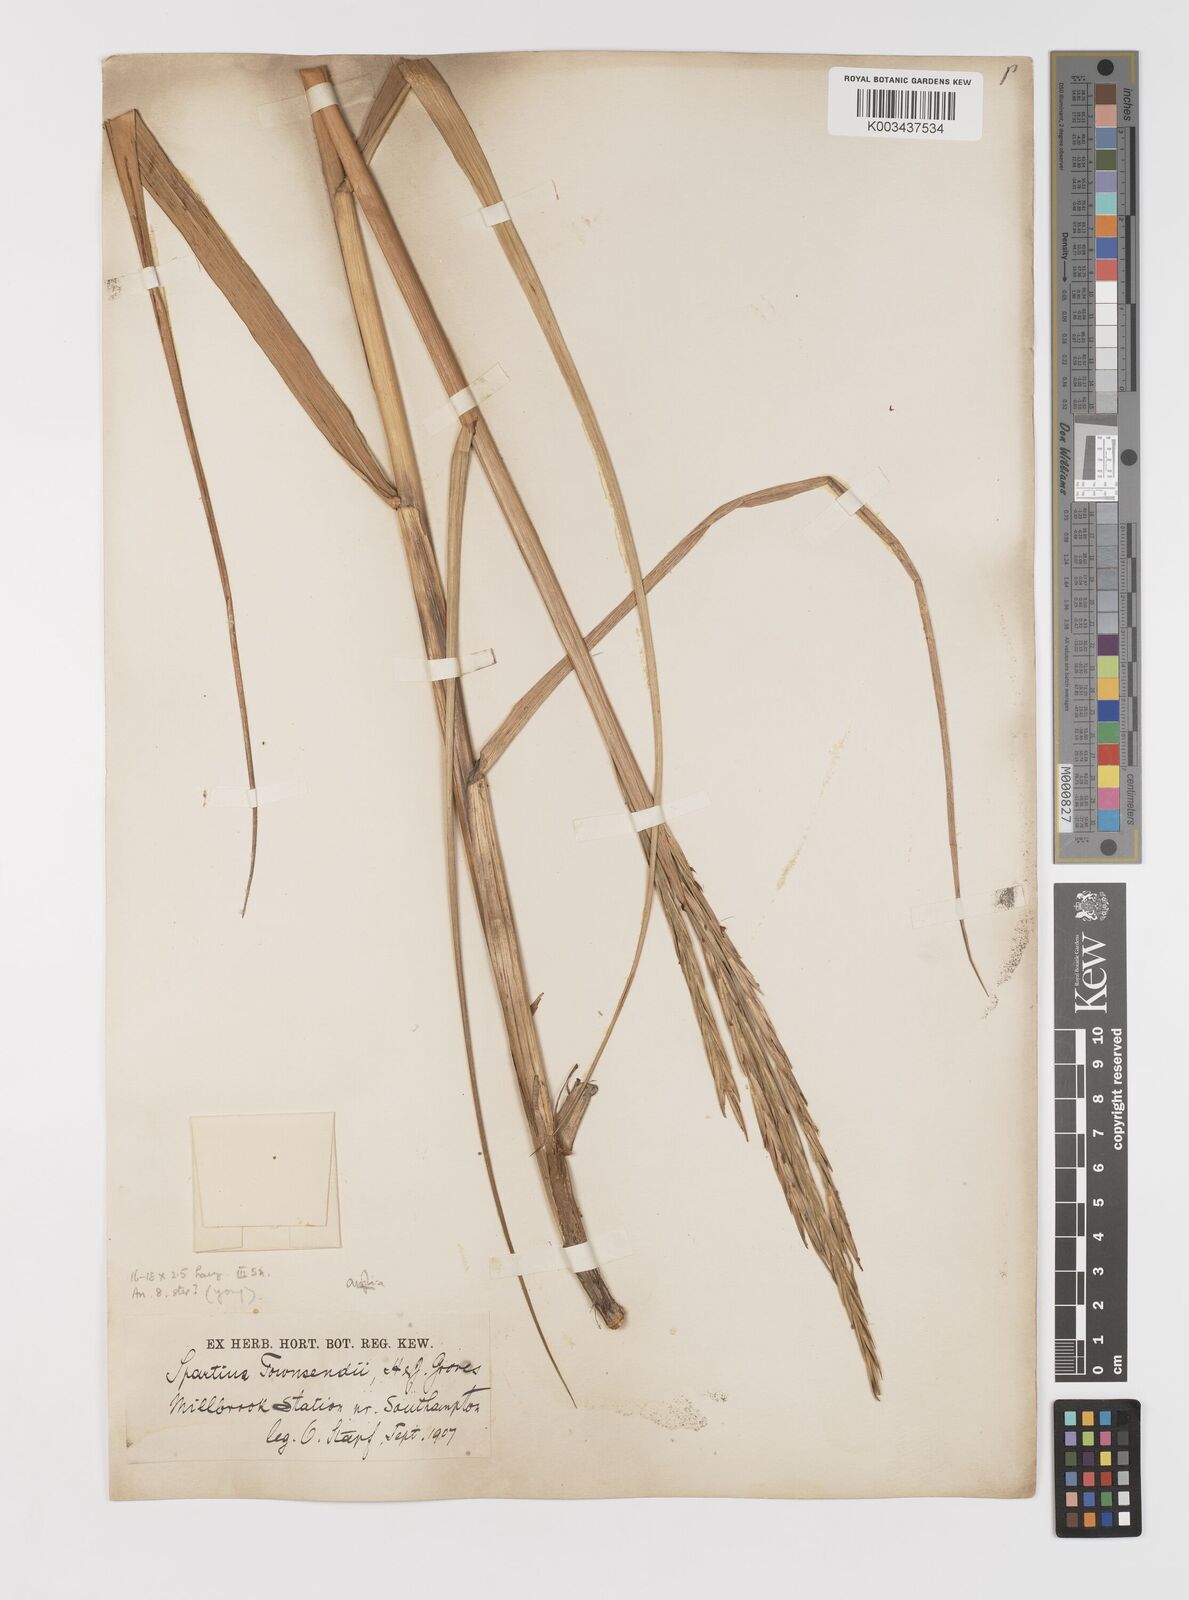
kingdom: Plantae
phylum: Tracheophyta
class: Liliopsida
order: Poales
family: Poaceae
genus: Sporobolus
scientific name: Sporobolus anglicus
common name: English cordgrass
